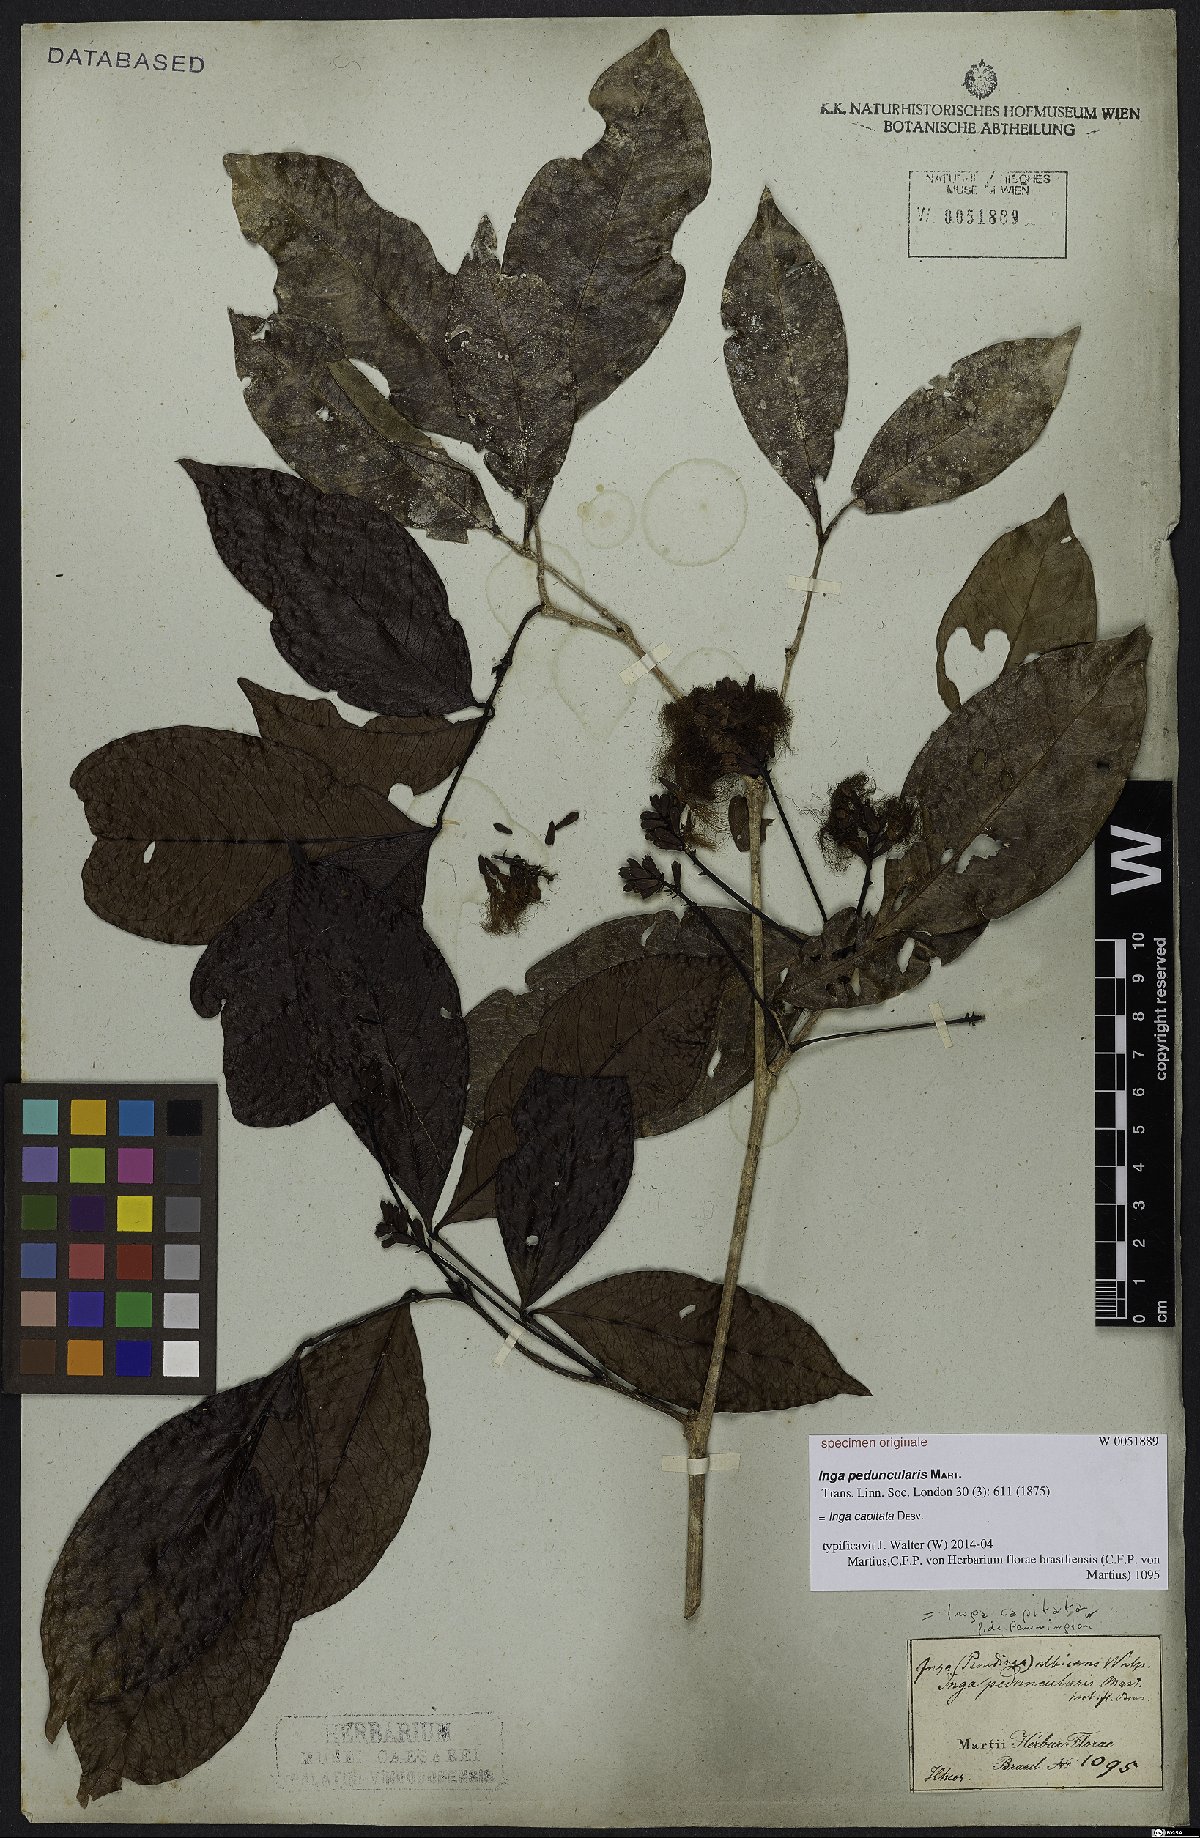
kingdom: Plantae
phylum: Tracheophyta
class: Magnoliopsida
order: Fabales
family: Fabaceae
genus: Inga
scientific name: Inga capitata
